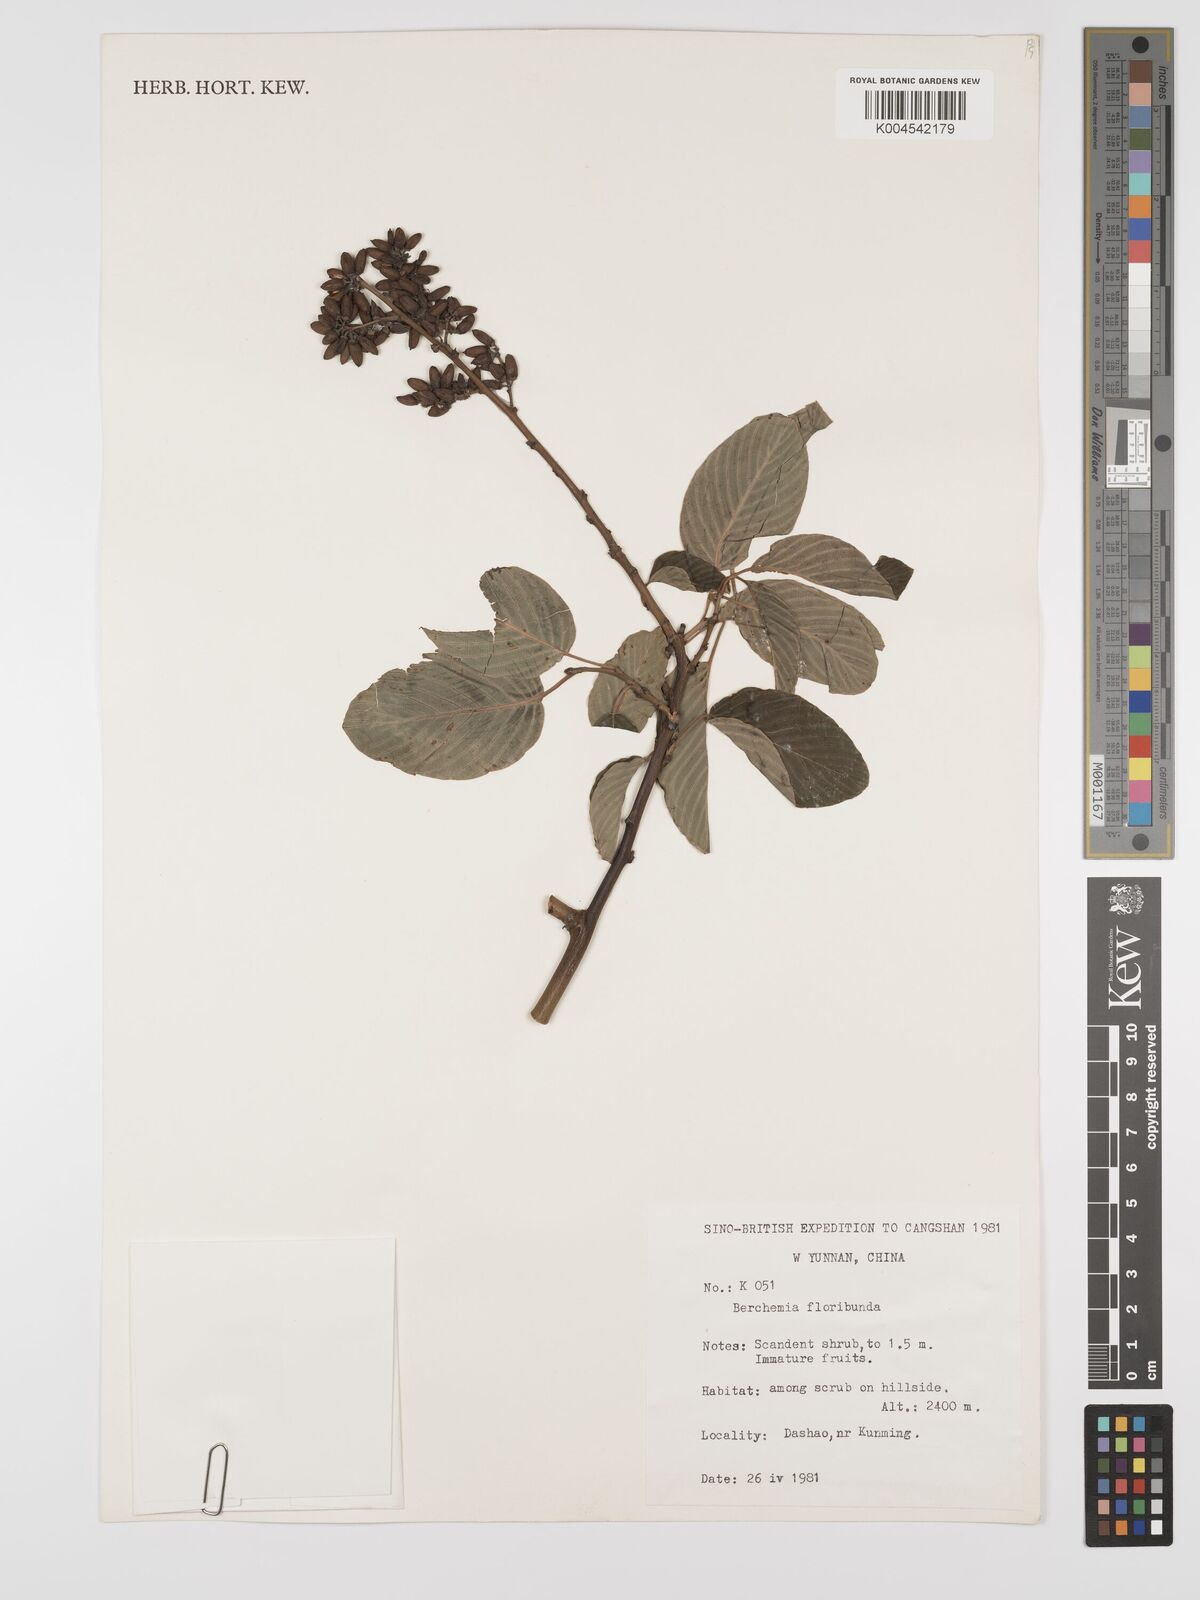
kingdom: Plantae
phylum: Tracheophyta
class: Magnoliopsida
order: Rosales
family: Rhamnaceae
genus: Berchemia
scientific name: Berchemia floribunda
